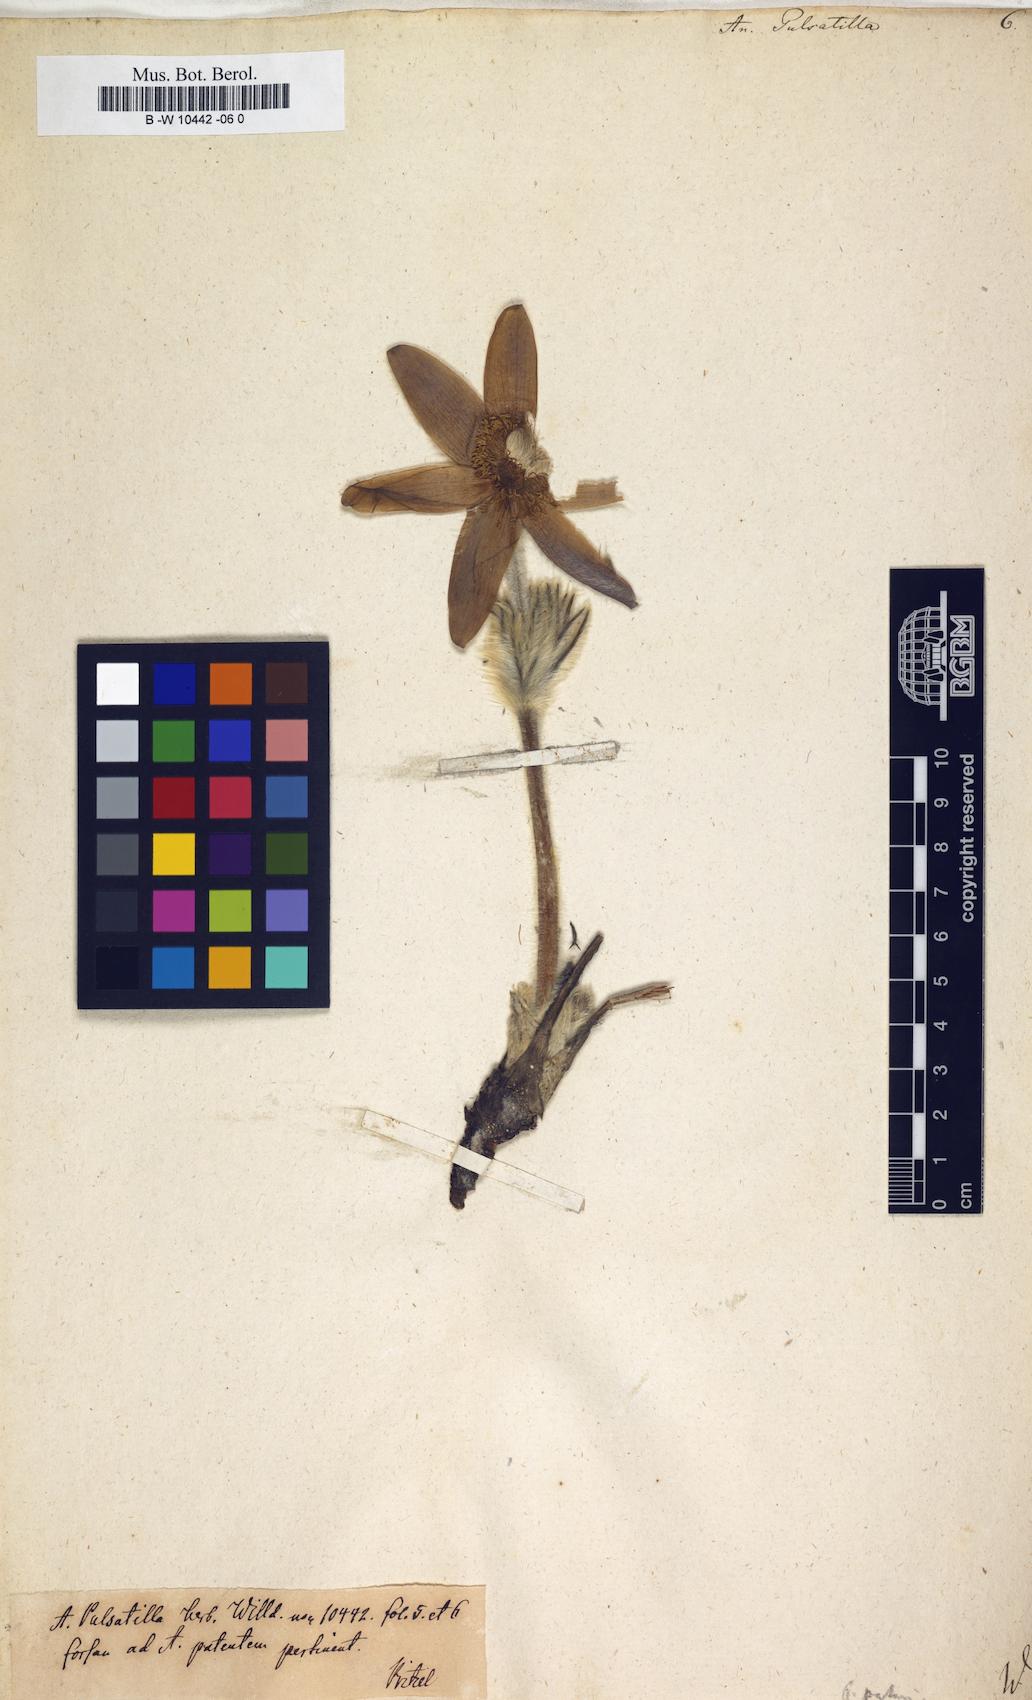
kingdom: Plantae
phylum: Tracheophyta
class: Magnoliopsida
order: Ranunculales
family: Ranunculaceae
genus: Pulsatilla
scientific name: Pulsatilla vulgaris
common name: Pasqueflower
